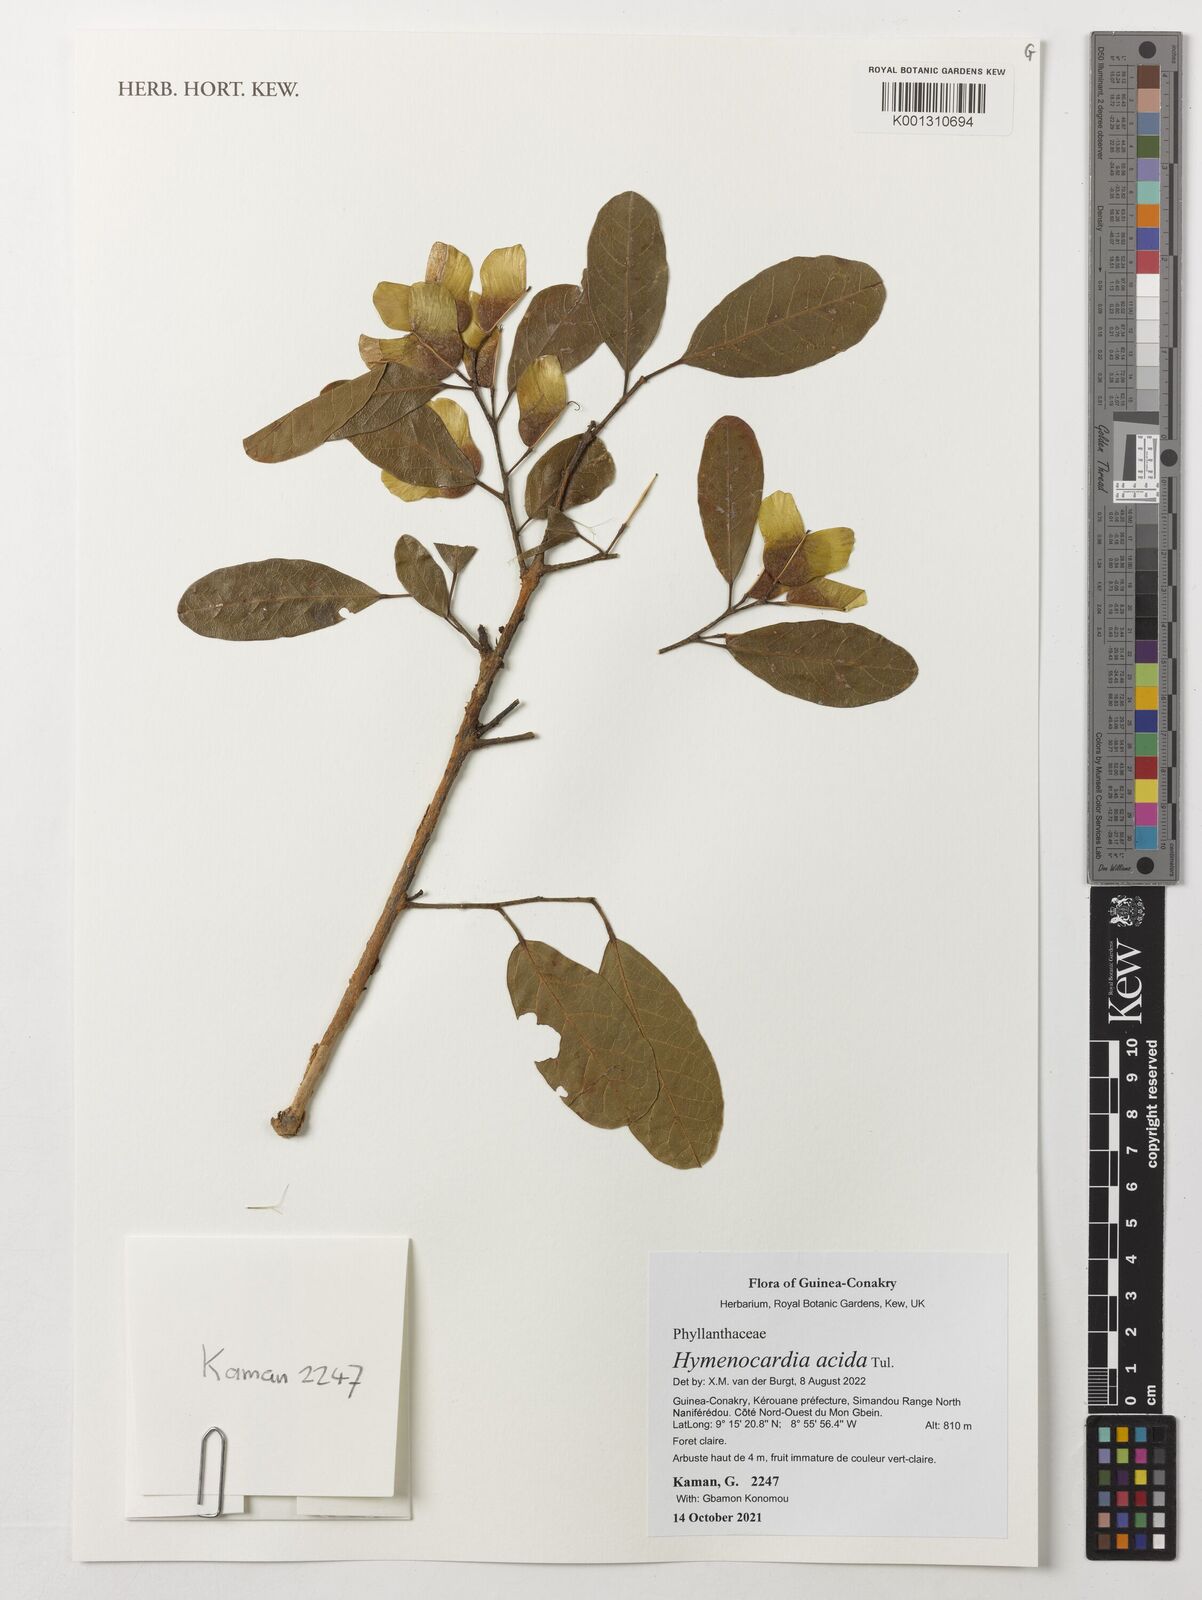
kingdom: Plantae
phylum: Tracheophyta
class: Magnoliopsida
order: Malpighiales
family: Phyllanthaceae
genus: Hymenocardia
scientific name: Hymenocardia acida
